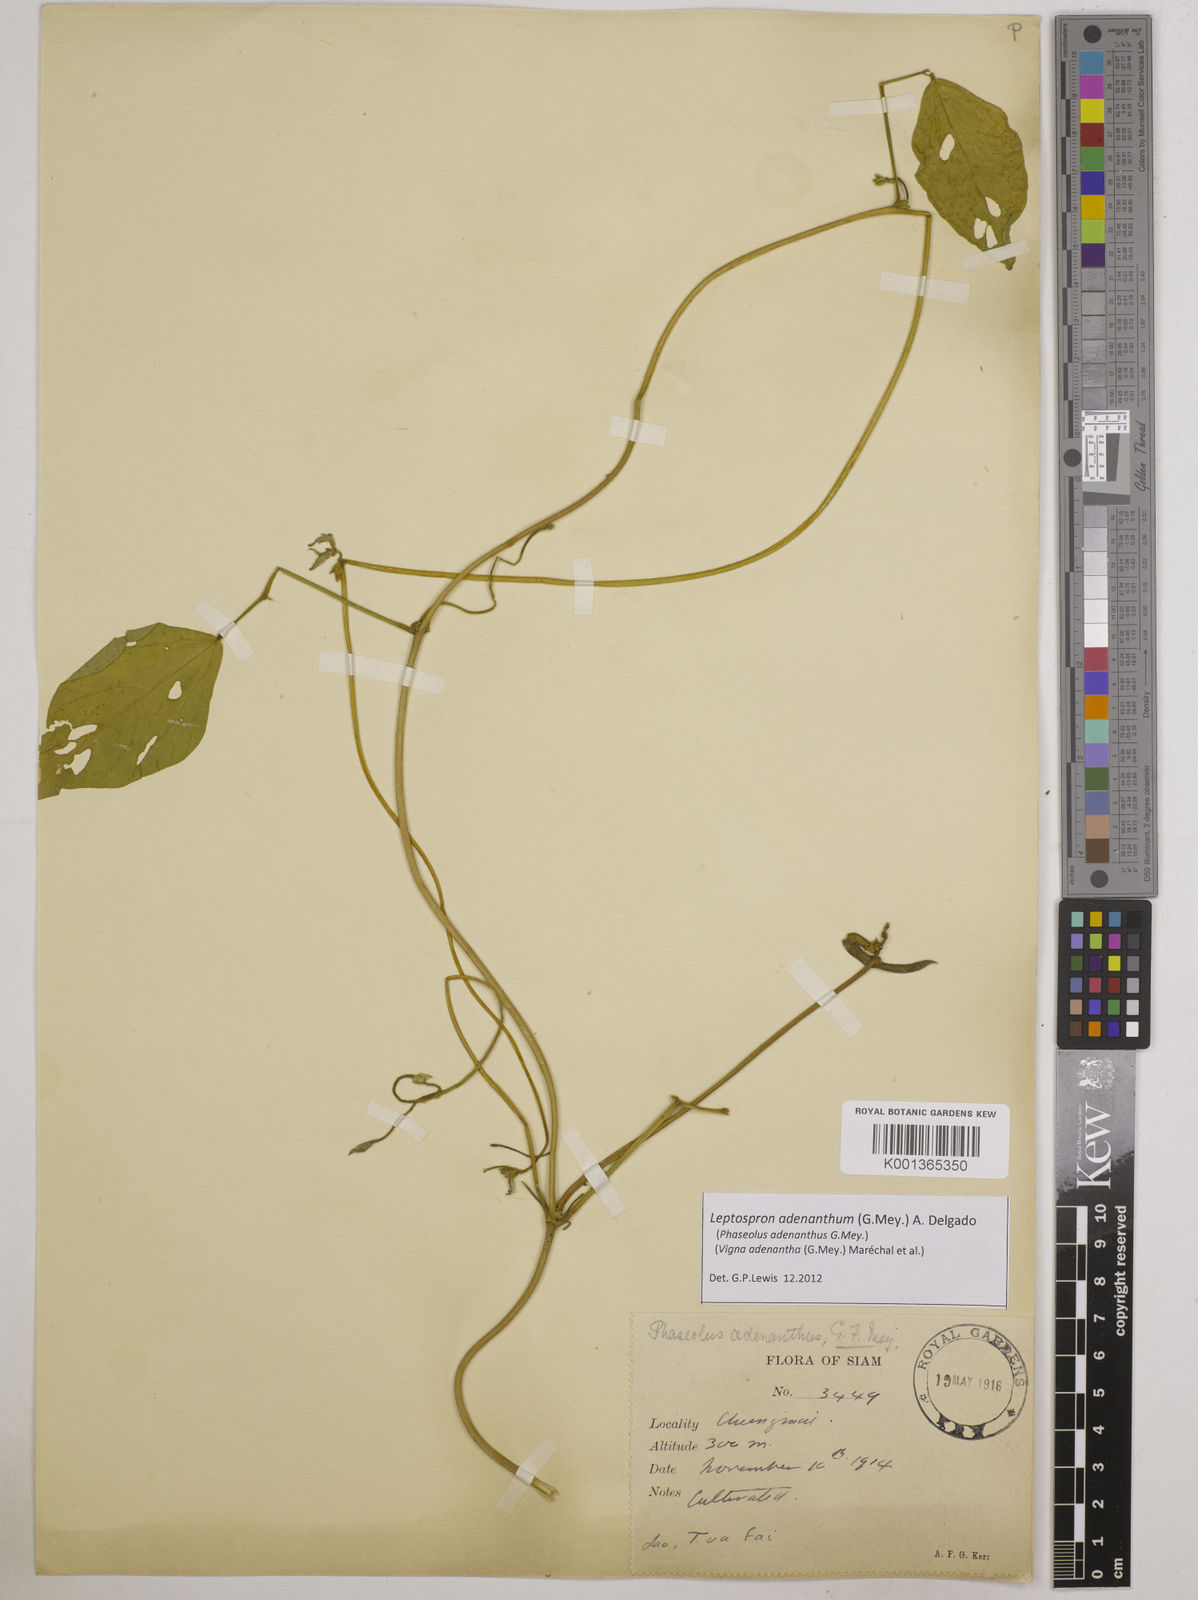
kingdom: Plantae
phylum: Tracheophyta
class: Magnoliopsida
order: Fabales
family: Fabaceae
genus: Leptospron
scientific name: Leptospron adenanthum
